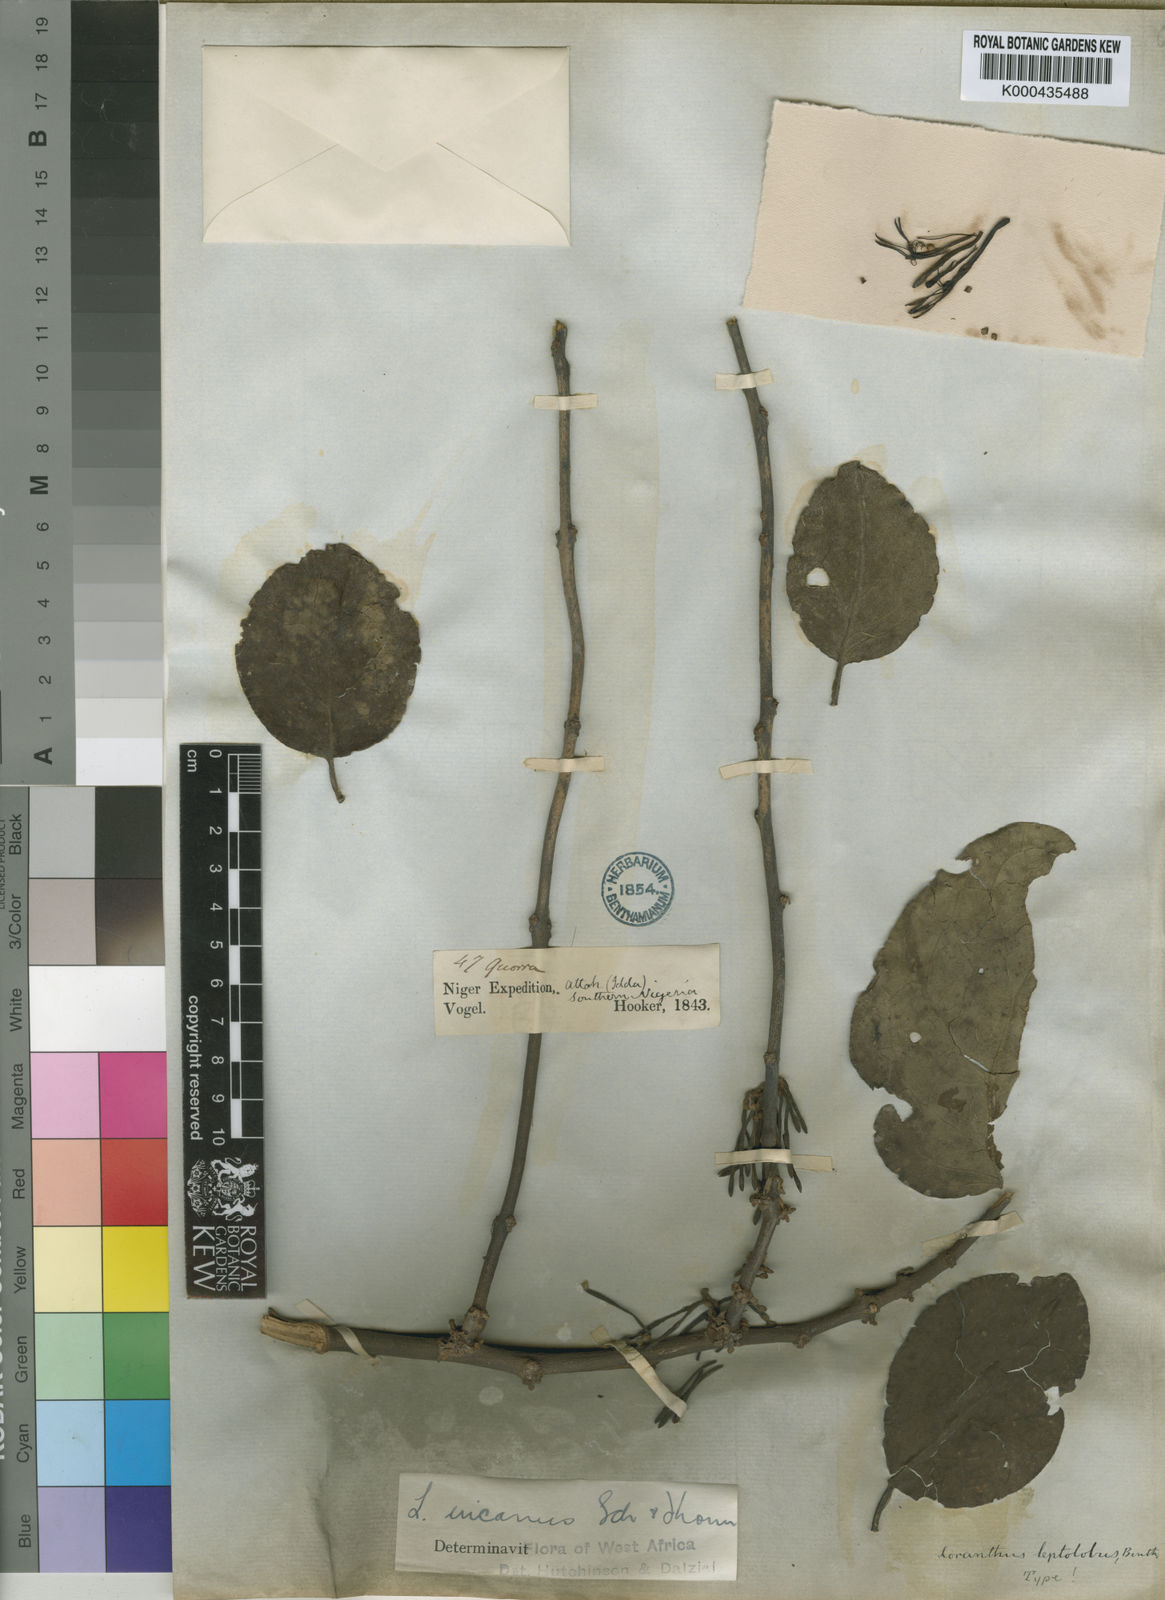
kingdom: Plantae
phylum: Tracheophyta
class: Magnoliopsida
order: Santalales
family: Loranthaceae
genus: Phragmanthera
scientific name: Phragmanthera capitata
